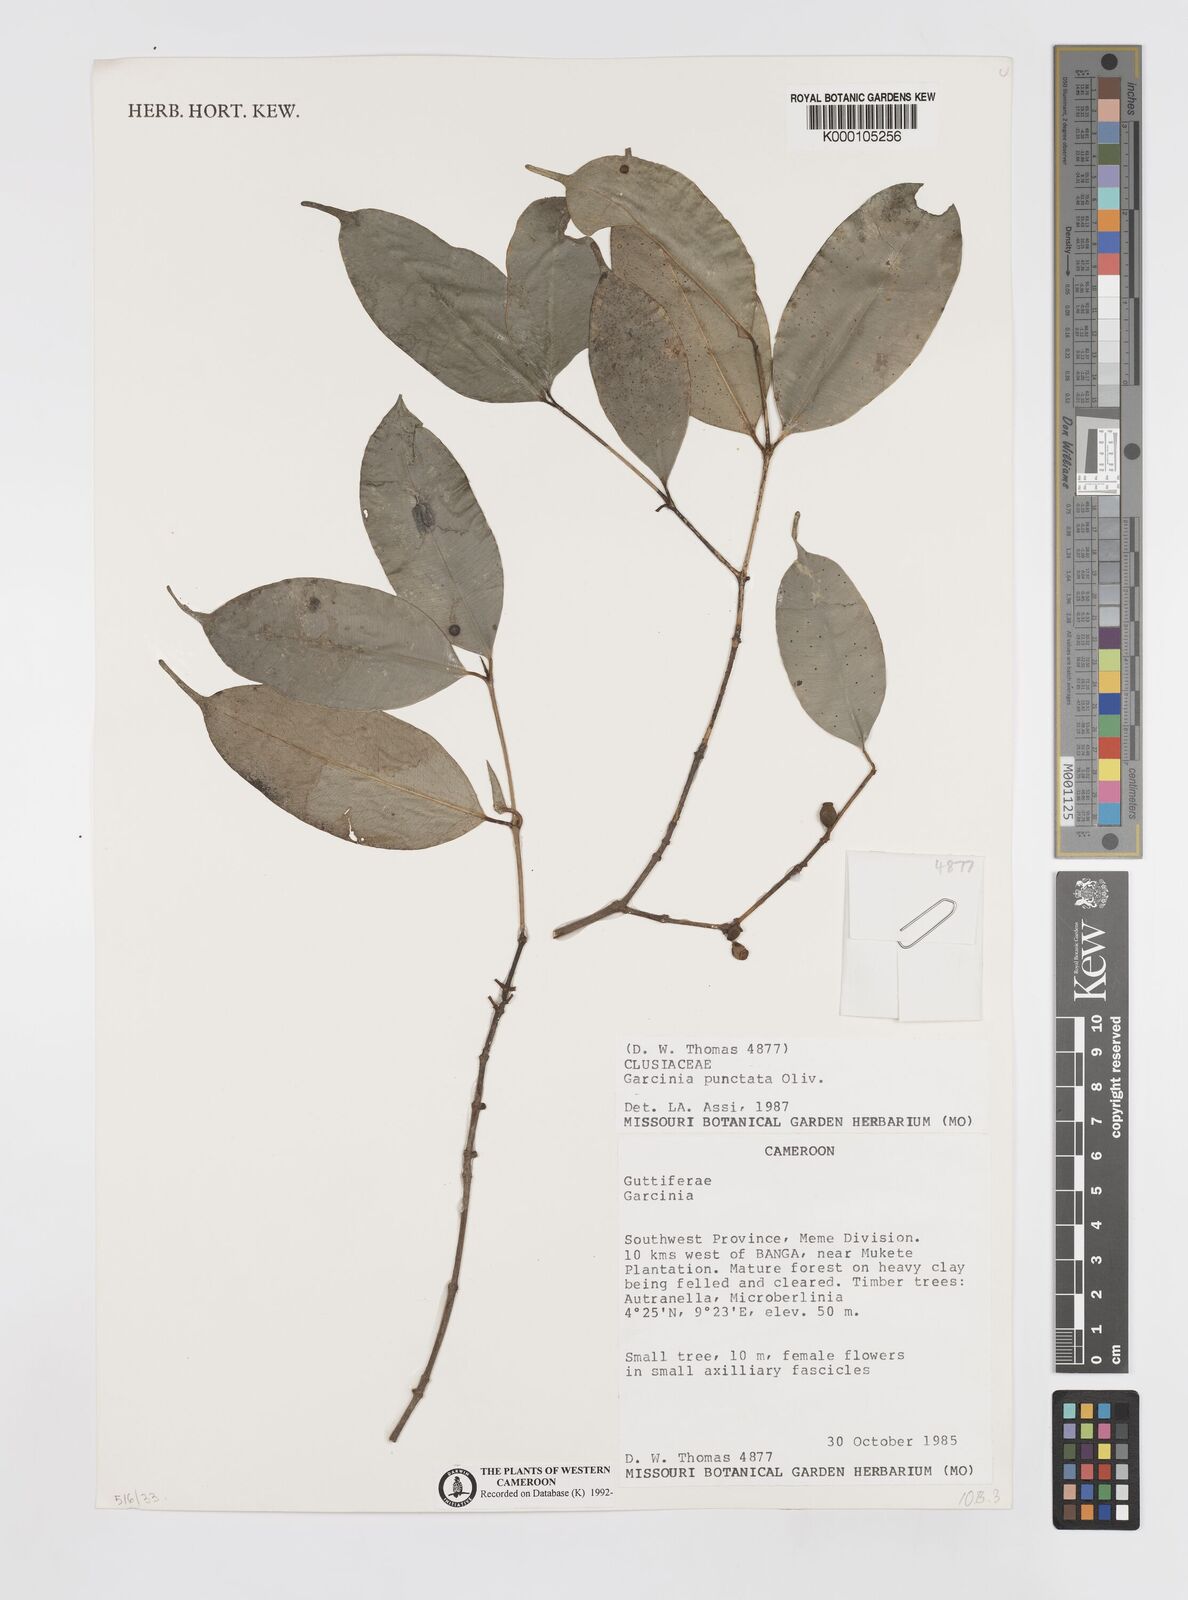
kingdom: Plantae
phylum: Tracheophyta
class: Magnoliopsida
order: Malpighiales
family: Clusiaceae
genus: Garcinia
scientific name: Garcinia punctata
